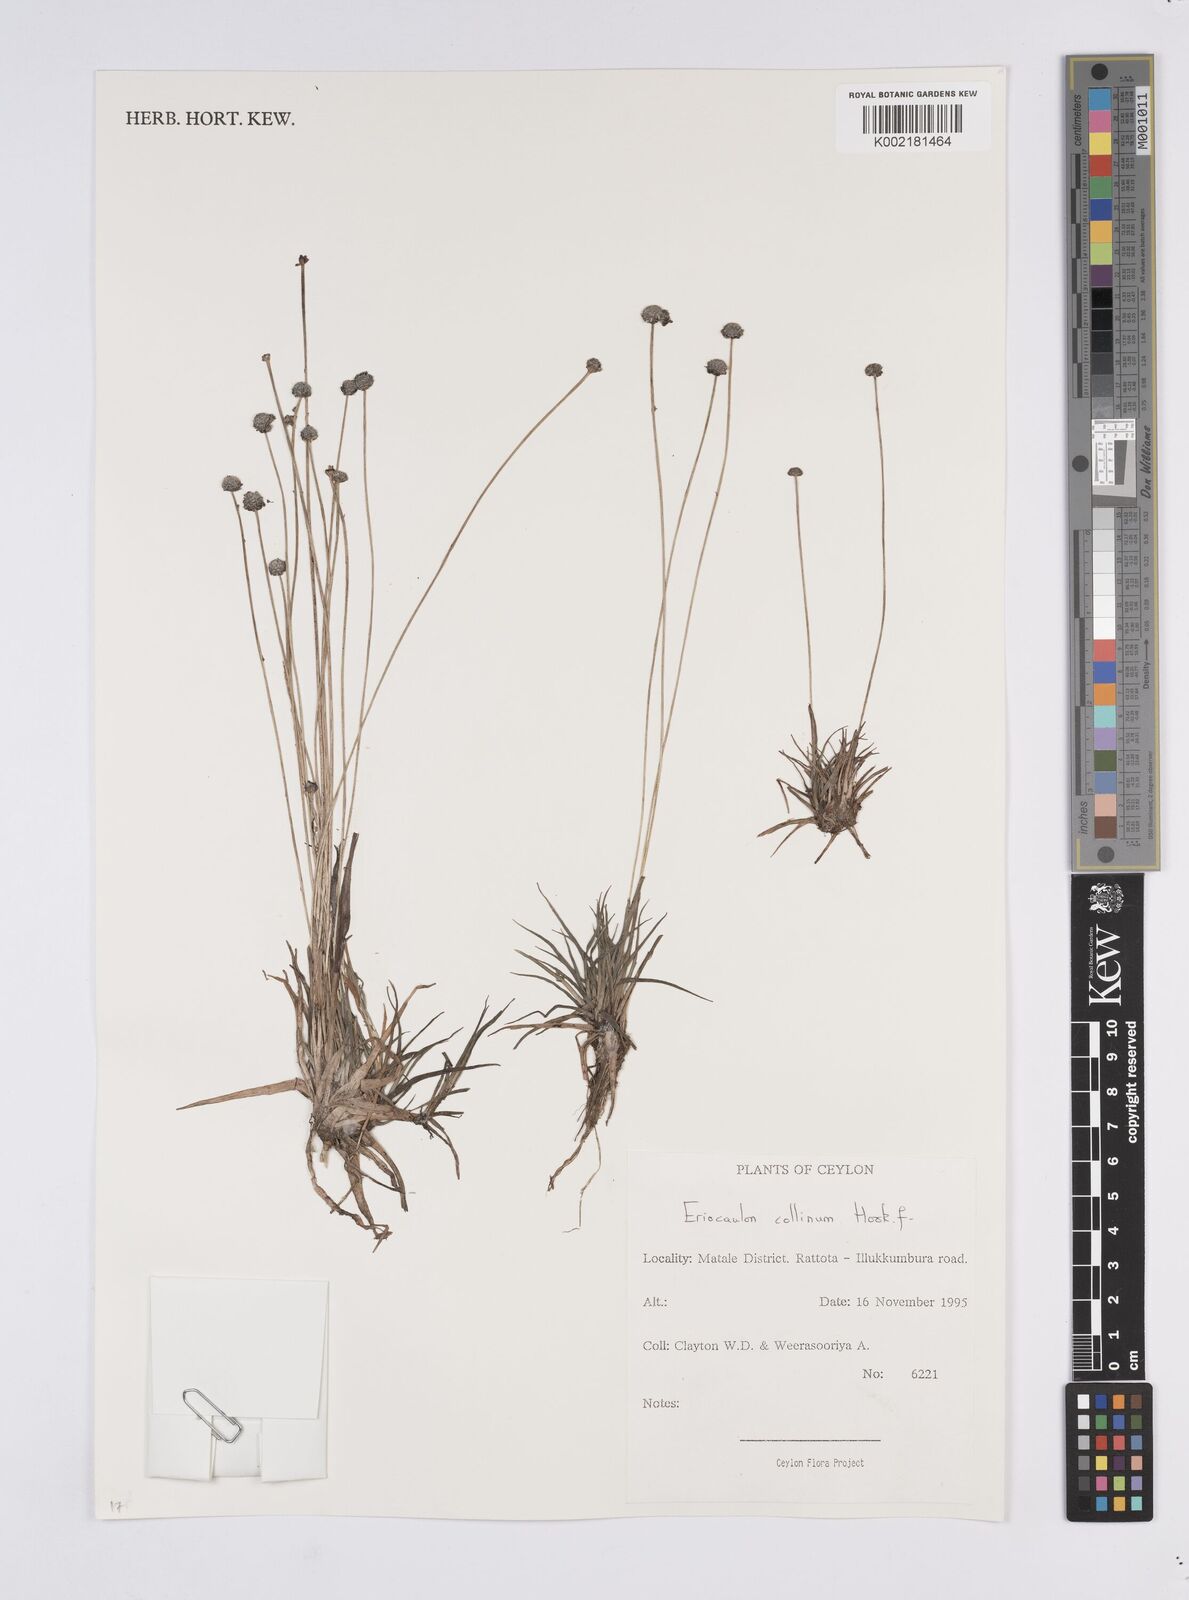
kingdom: Plantae
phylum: Tracheophyta
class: Liliopsida
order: Poales
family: Eriocaulaceae
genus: Eriocaulon
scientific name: Eriocaulon odoratum
